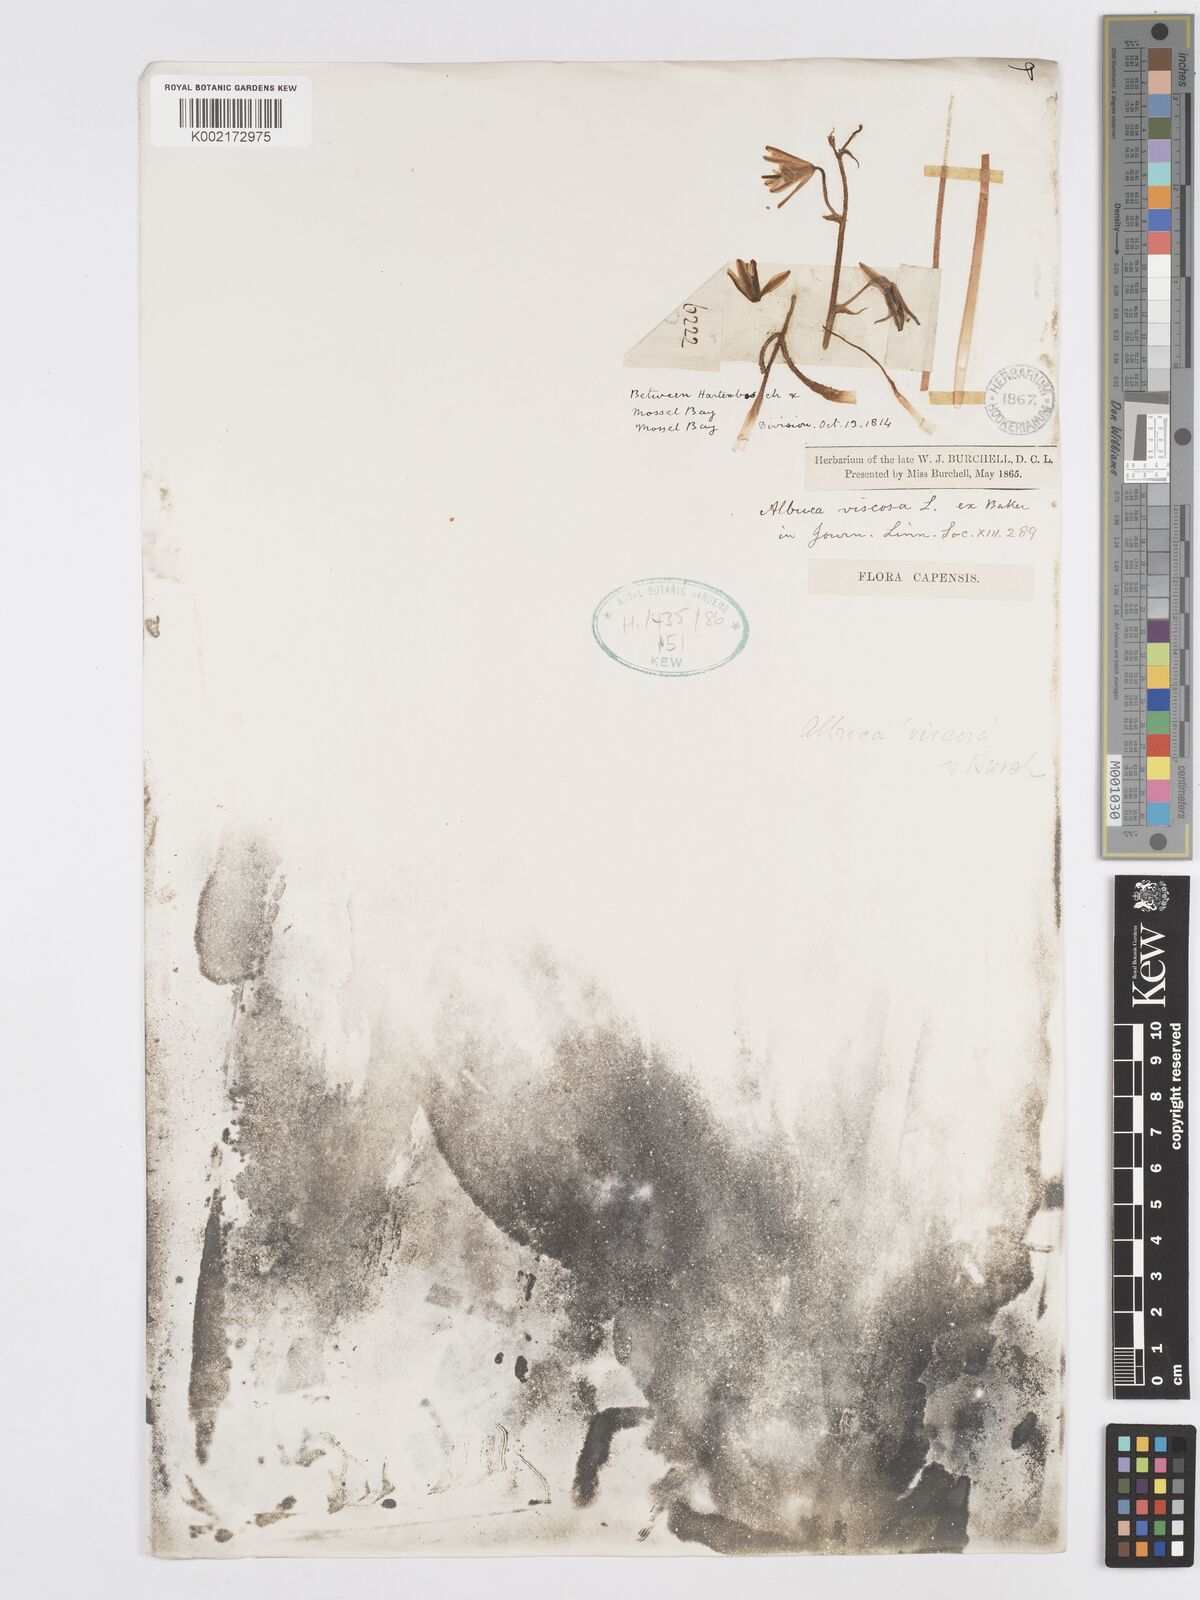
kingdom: Plantae
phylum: Tracheophyta
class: Liliopsida
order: Asparagales
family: Asparagaceae
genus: Albuca
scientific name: Albuca viscosa
